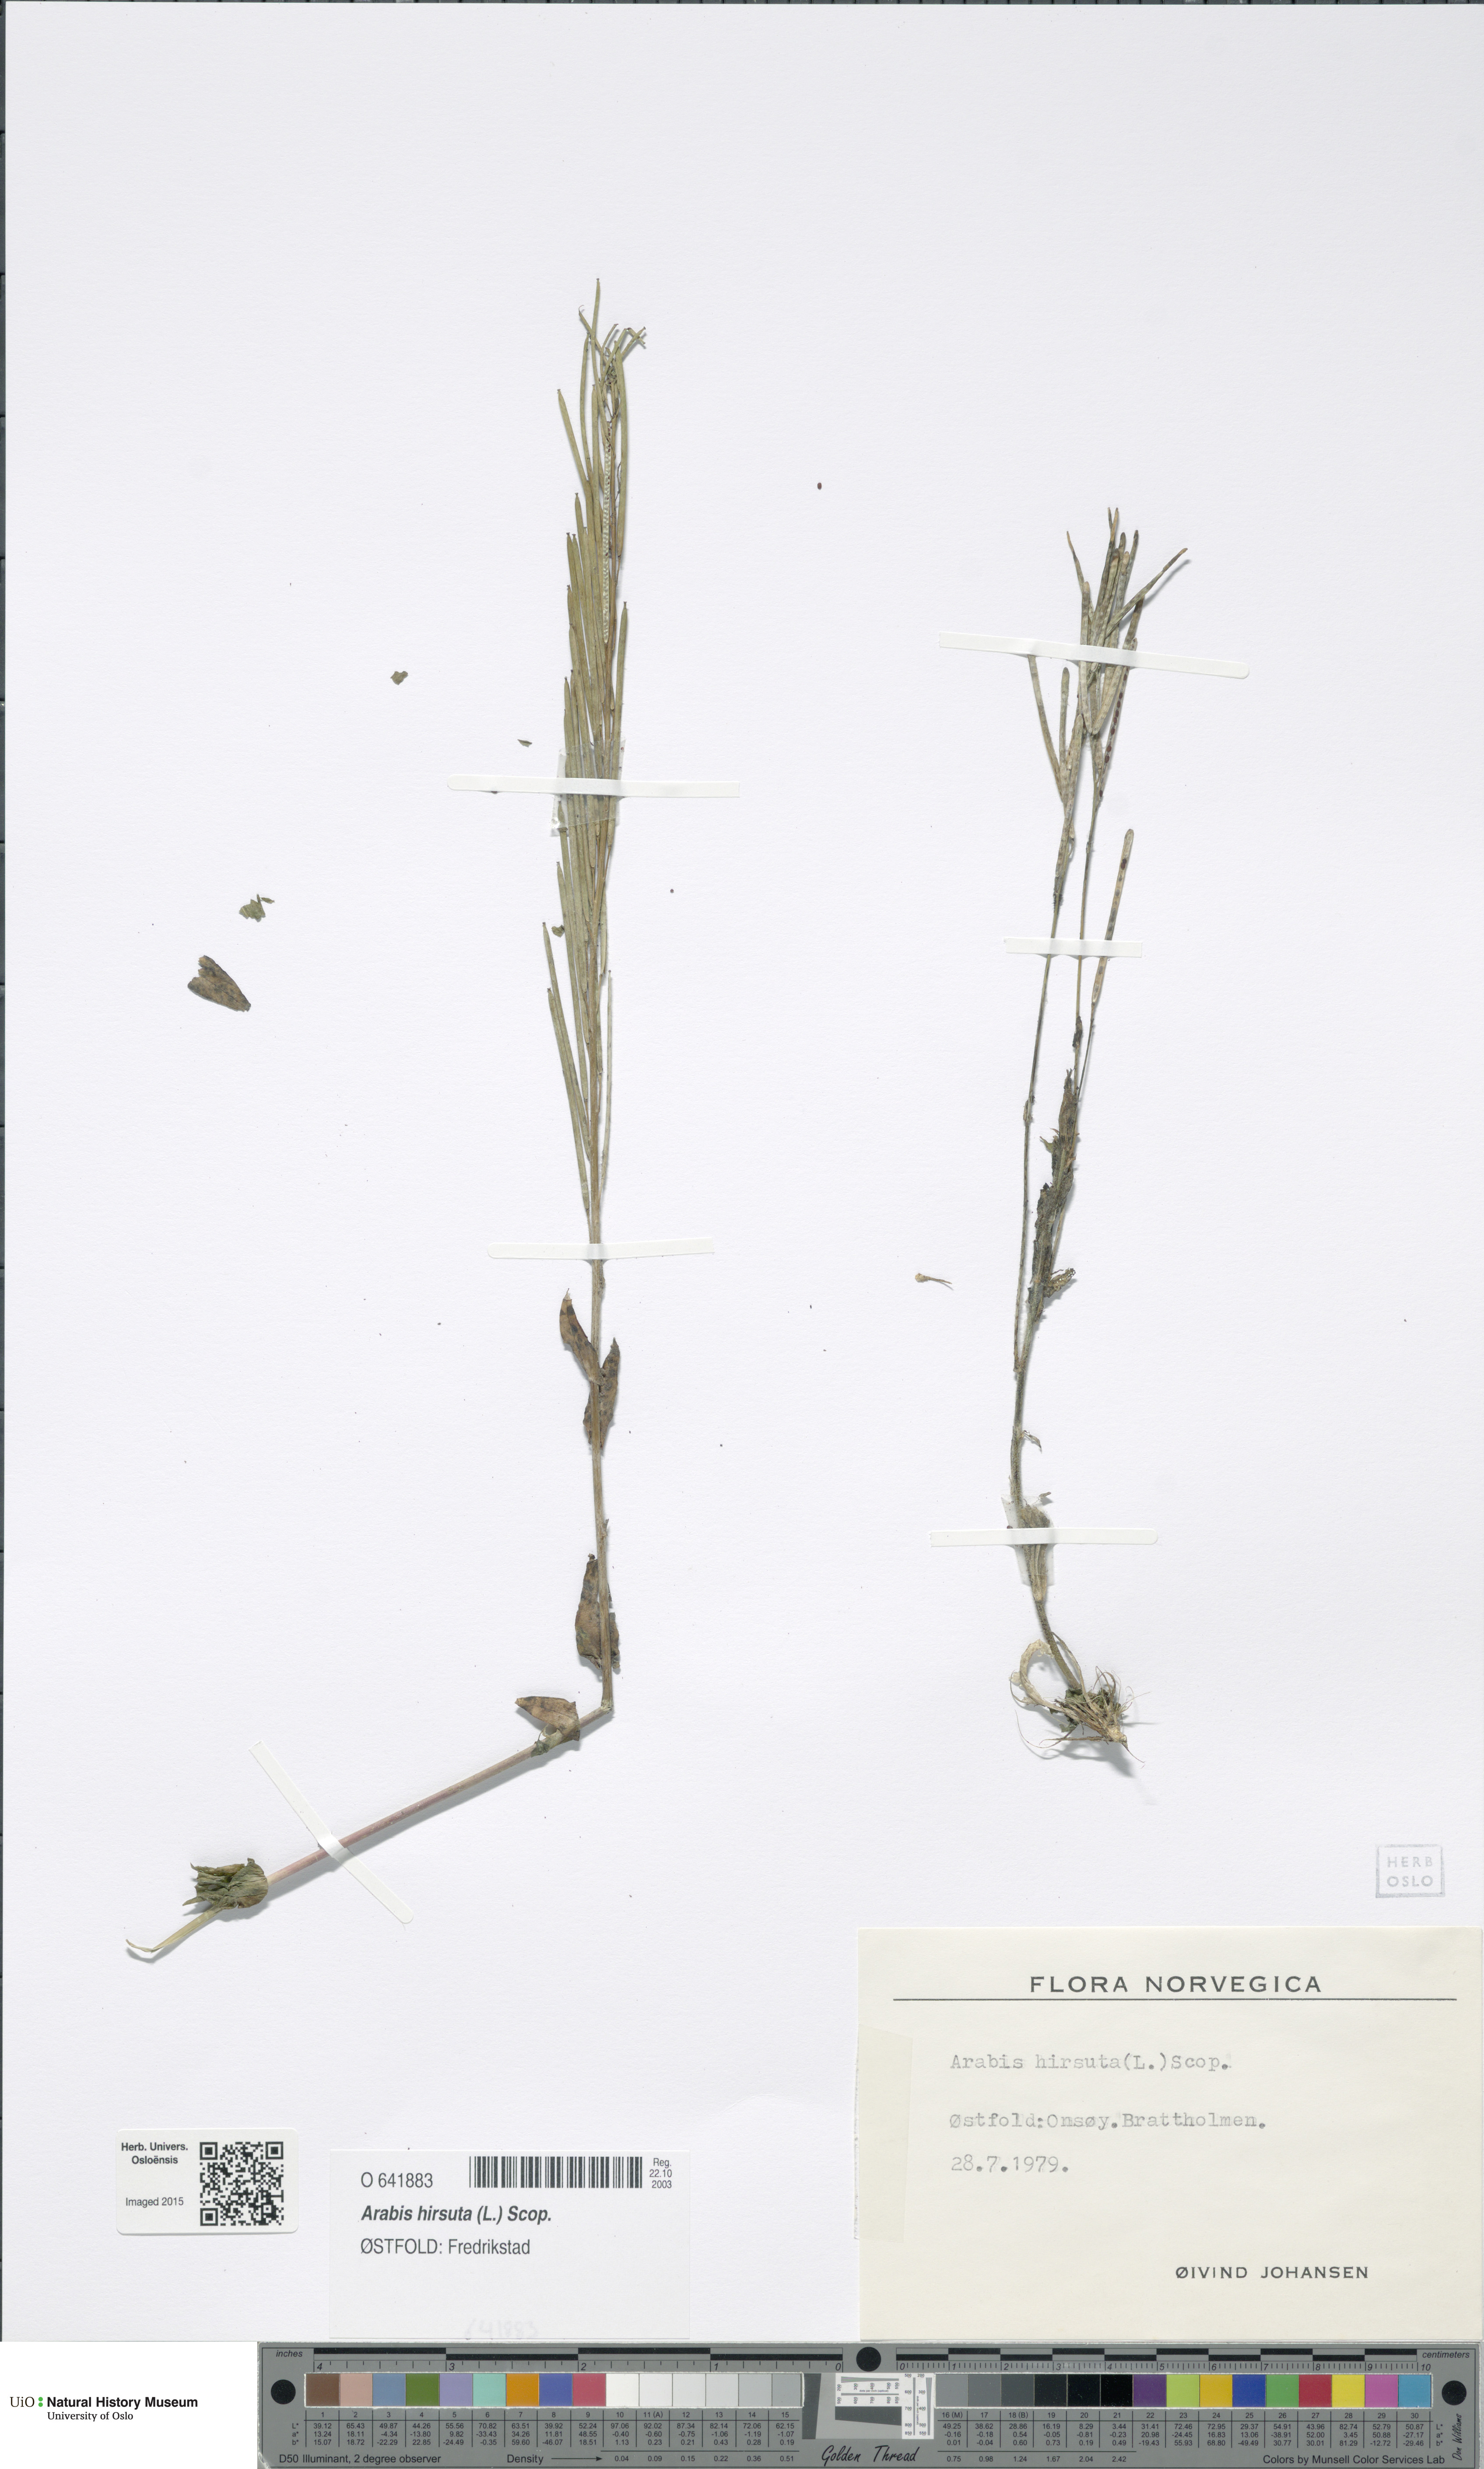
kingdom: Plantae
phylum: Tracheophyta
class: Magnoliopsida
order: Brassicales
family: Brassicaceae
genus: Arabis
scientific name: Arabis hirsuta
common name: Hairy rock-cress
